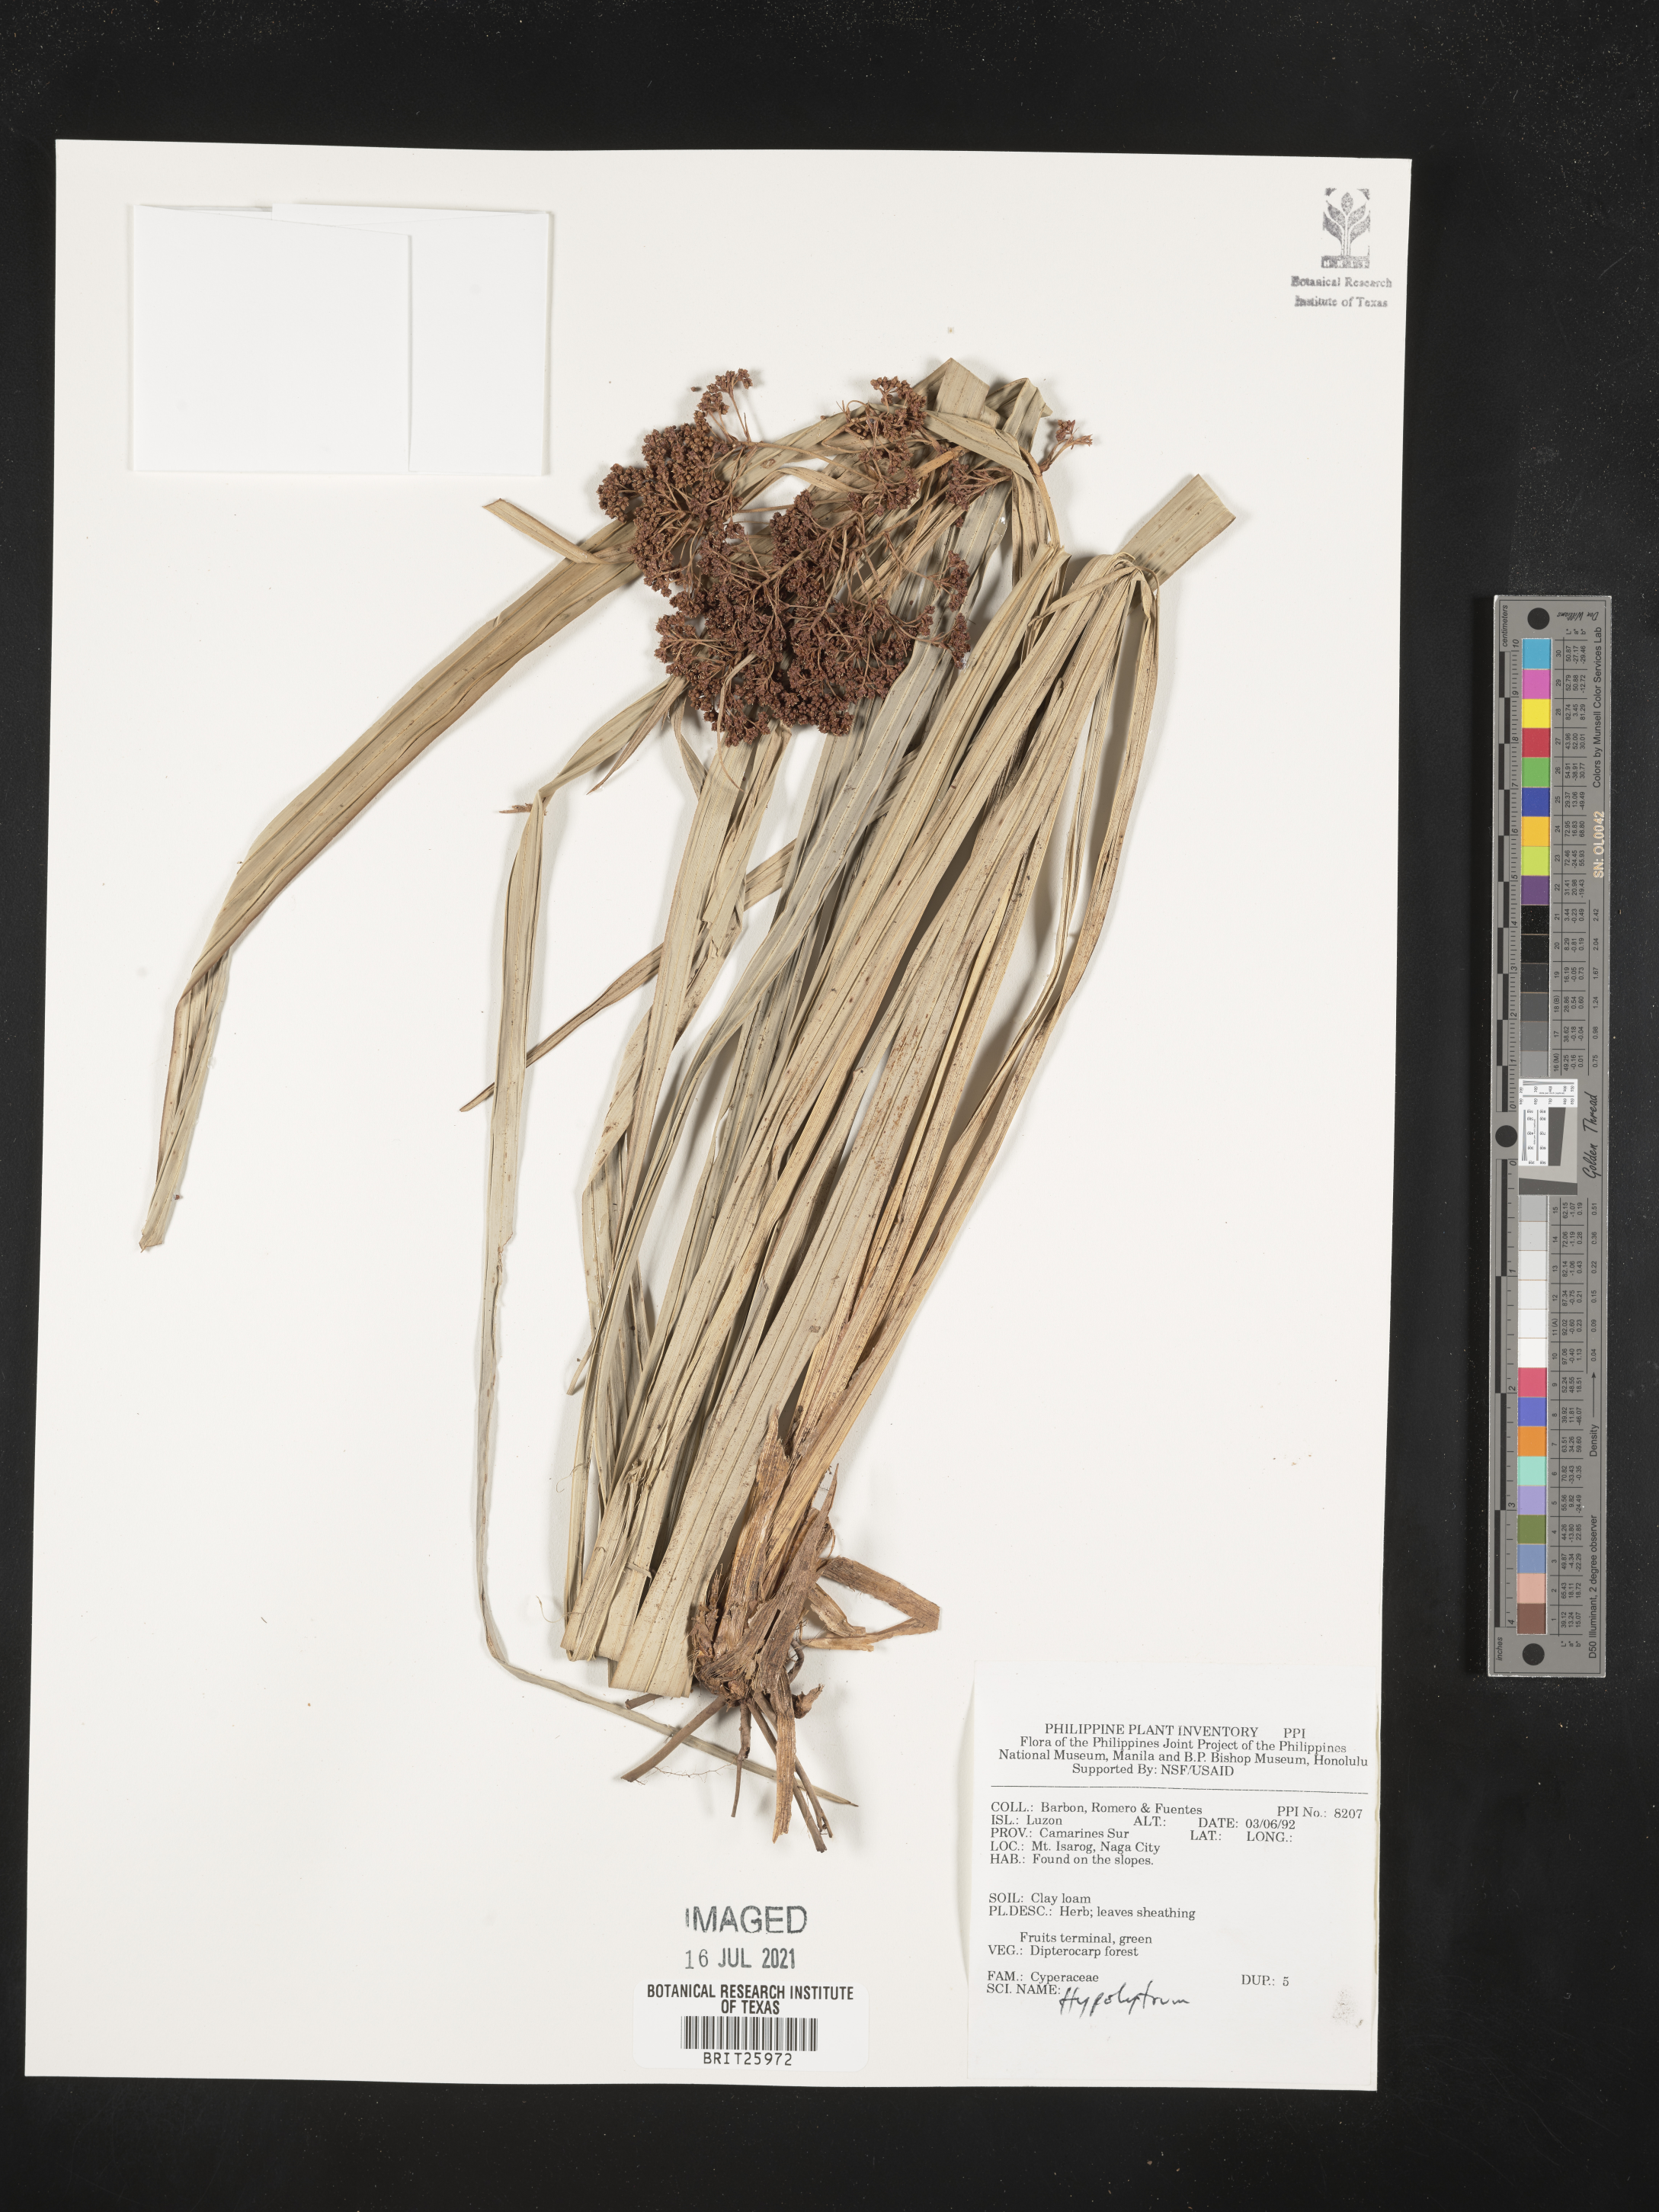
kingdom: Plantae
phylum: Tracheophyta
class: Liliopsida
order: Poales
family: Cyperaceae
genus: Hypolytrum
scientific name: Hypolytrum
